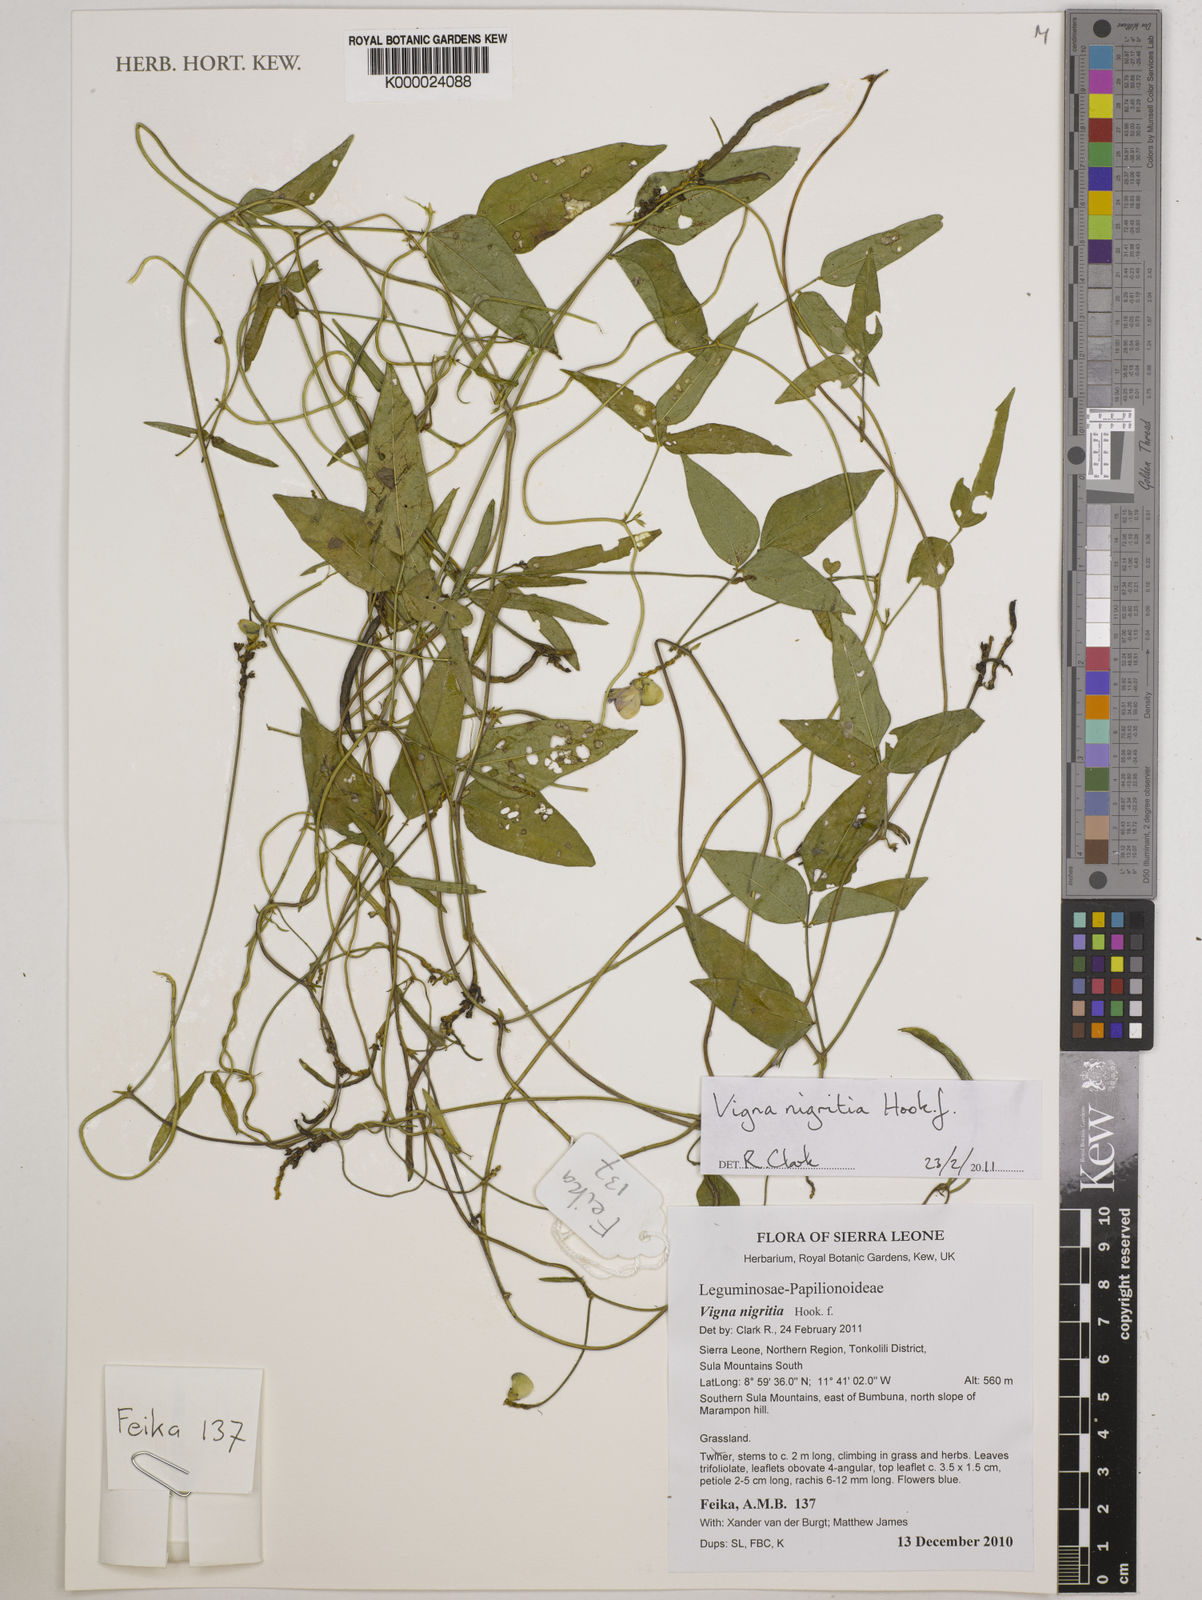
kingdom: Plantae
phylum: Tracheophyta
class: Magnoliopsida
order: Fabales
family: Fabaceae
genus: Vigna
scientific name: Vigna nigritia
